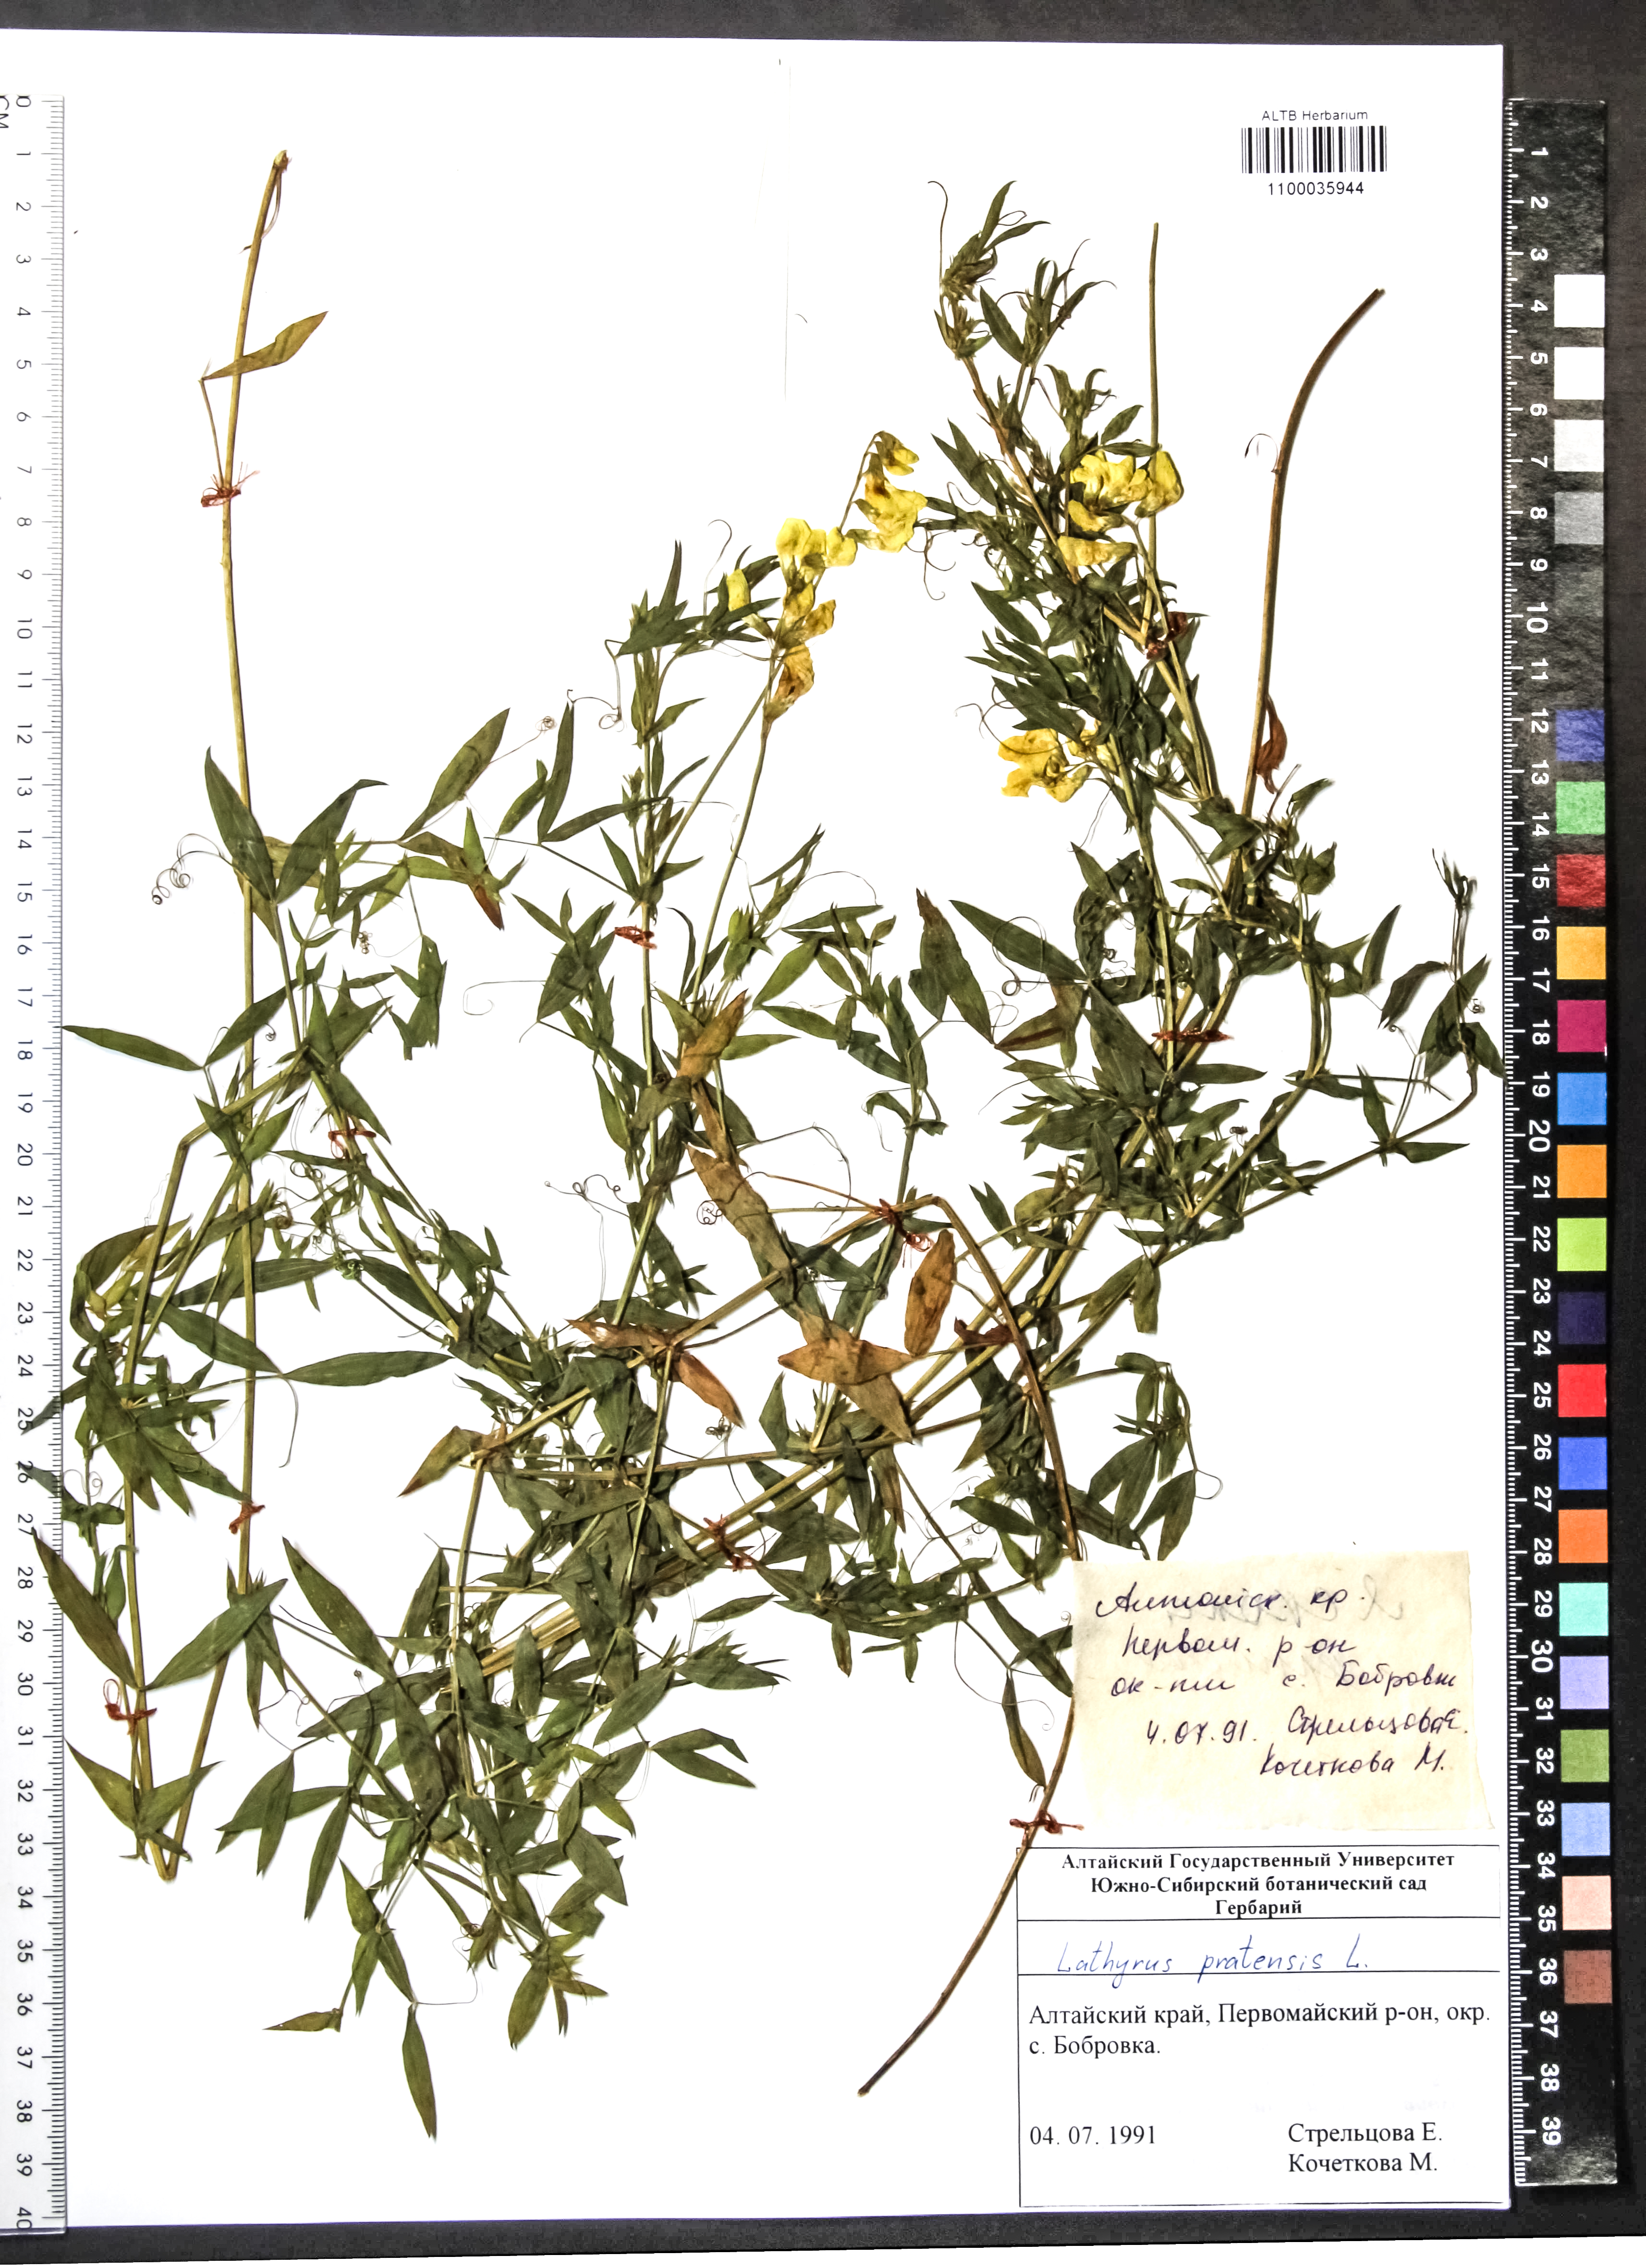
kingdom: Plantae
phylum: Tracheophyta
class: Magnoliopsida
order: Fabales
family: Fabaceae
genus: Lathyrus
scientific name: Lathyrus pratensis
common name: Meadow vetchling
